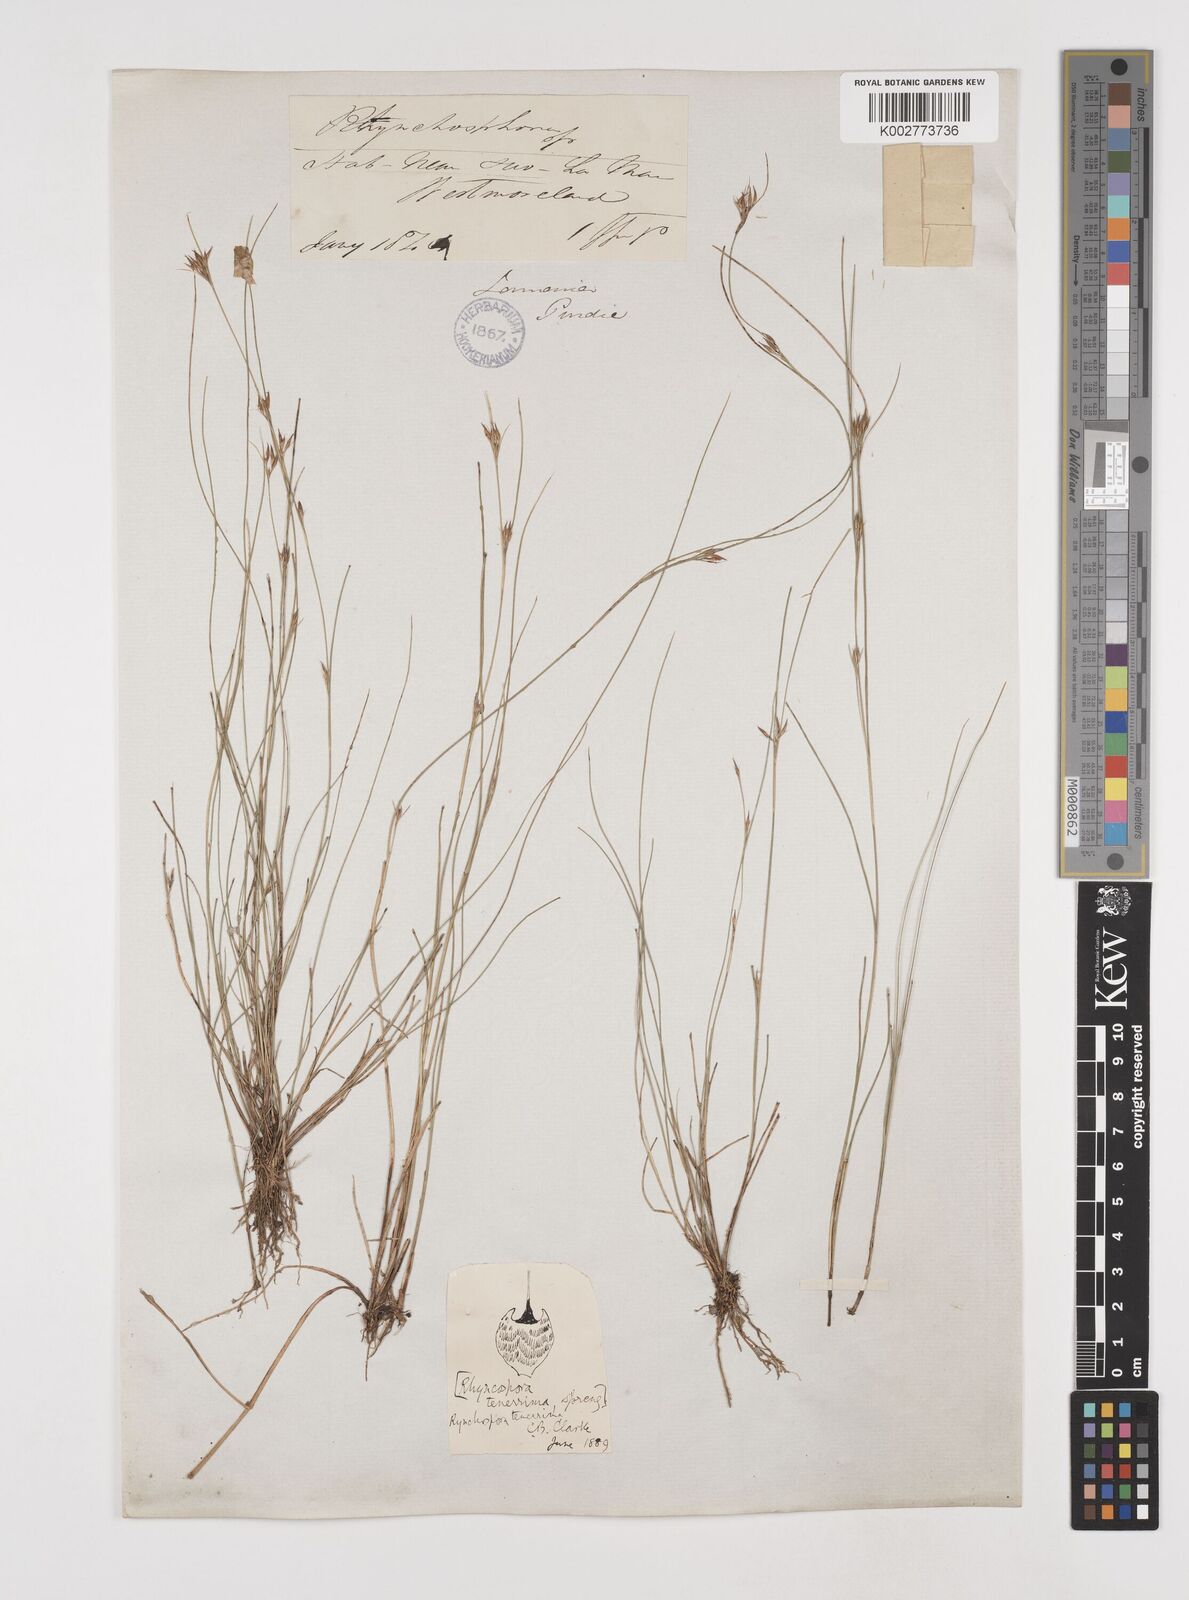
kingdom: Plantae
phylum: Tracheophyta
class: Liliopsida
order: Poales
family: Cyperaceae
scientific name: Cyperaceae
